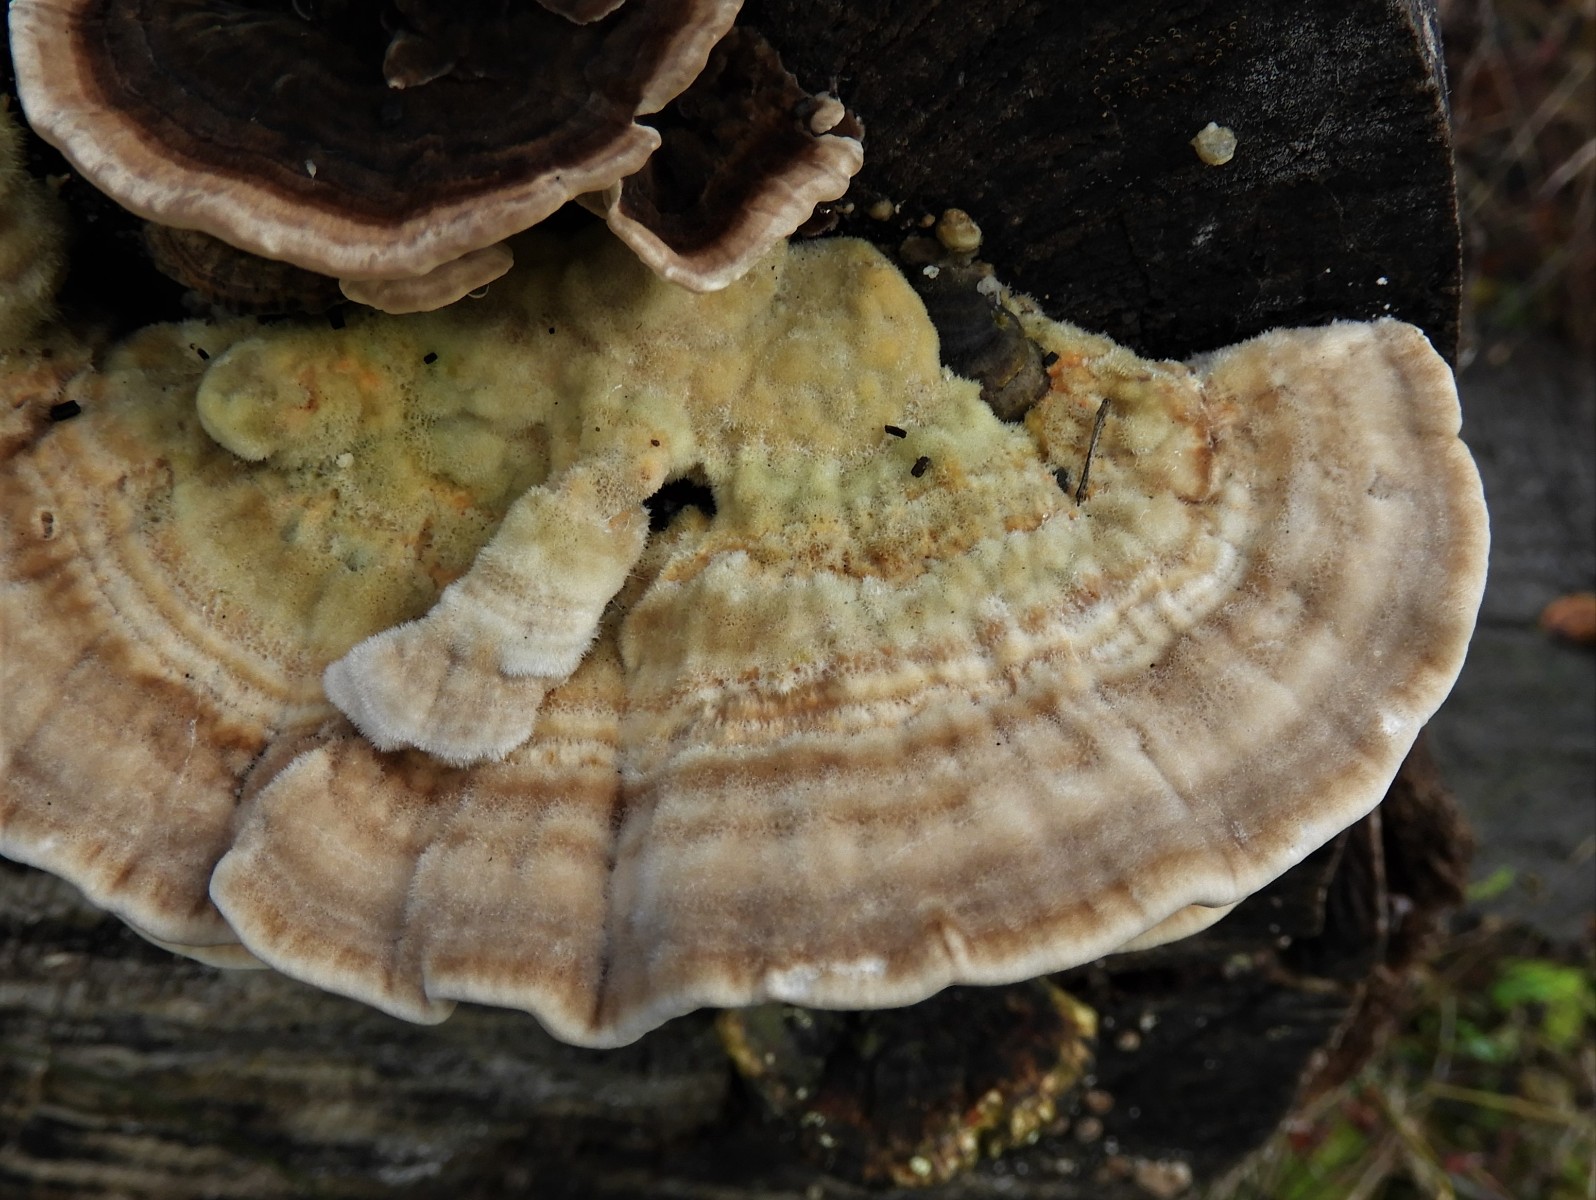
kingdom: Fungi
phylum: Basidiomycota
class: Agaricomycetes
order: Polyporales
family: Polyporaceae
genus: Lenzites
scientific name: Lenzites betulinus
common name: birke-læderporesvamp
